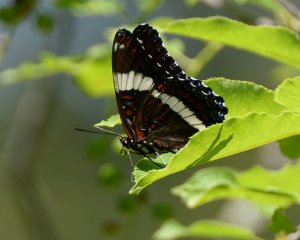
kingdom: Animalia
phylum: Arthropoda
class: Insecta
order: Lepidoptera
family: Nymphalidae
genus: Limenitis
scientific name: Limenitis arthemis
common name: Red-spotted Admiral
